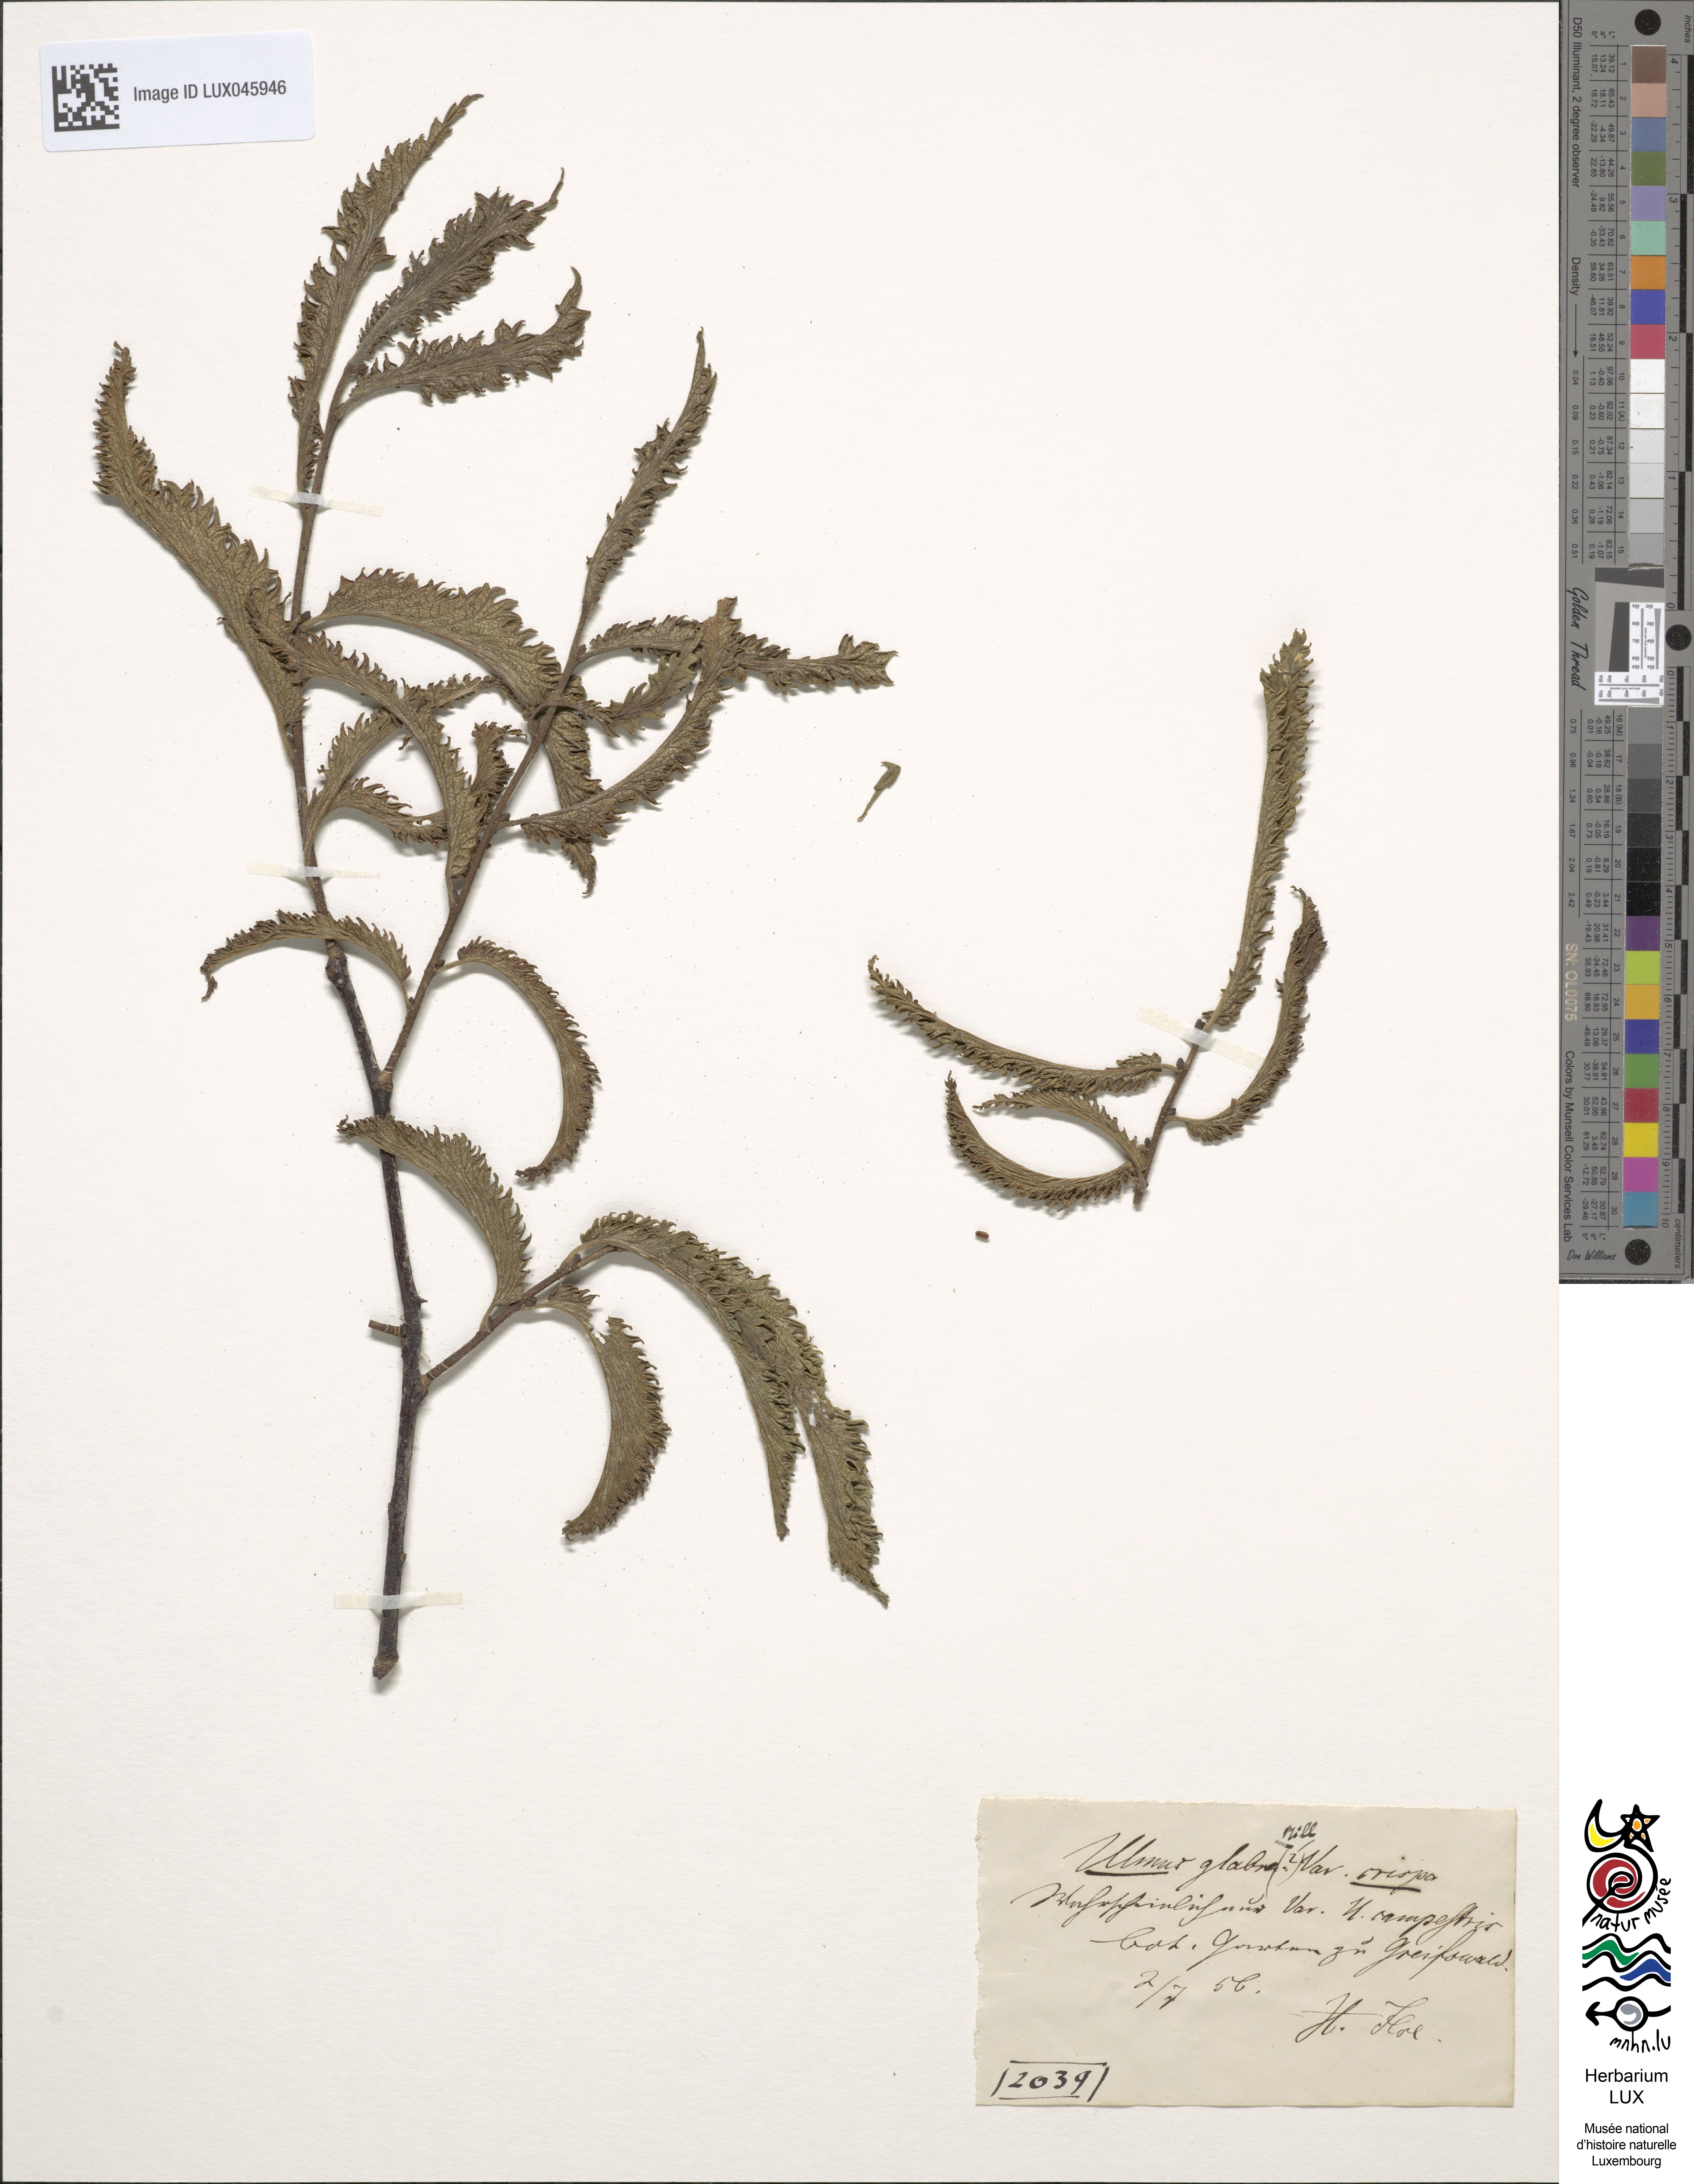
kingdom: Plantae
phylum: Tracheophyta
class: Magnoliopsida
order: Rosales
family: Ulmaceae
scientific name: Ulmaceae
